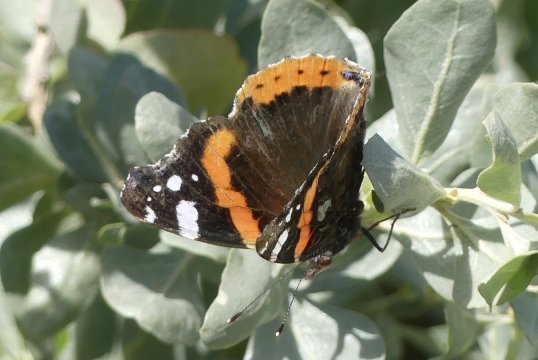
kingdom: Animalia
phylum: Arthropoda
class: Insecta
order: Lepidoptera
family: Nymphalidae
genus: Vanessa
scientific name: Vanessa atalanta
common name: Red Admiral
